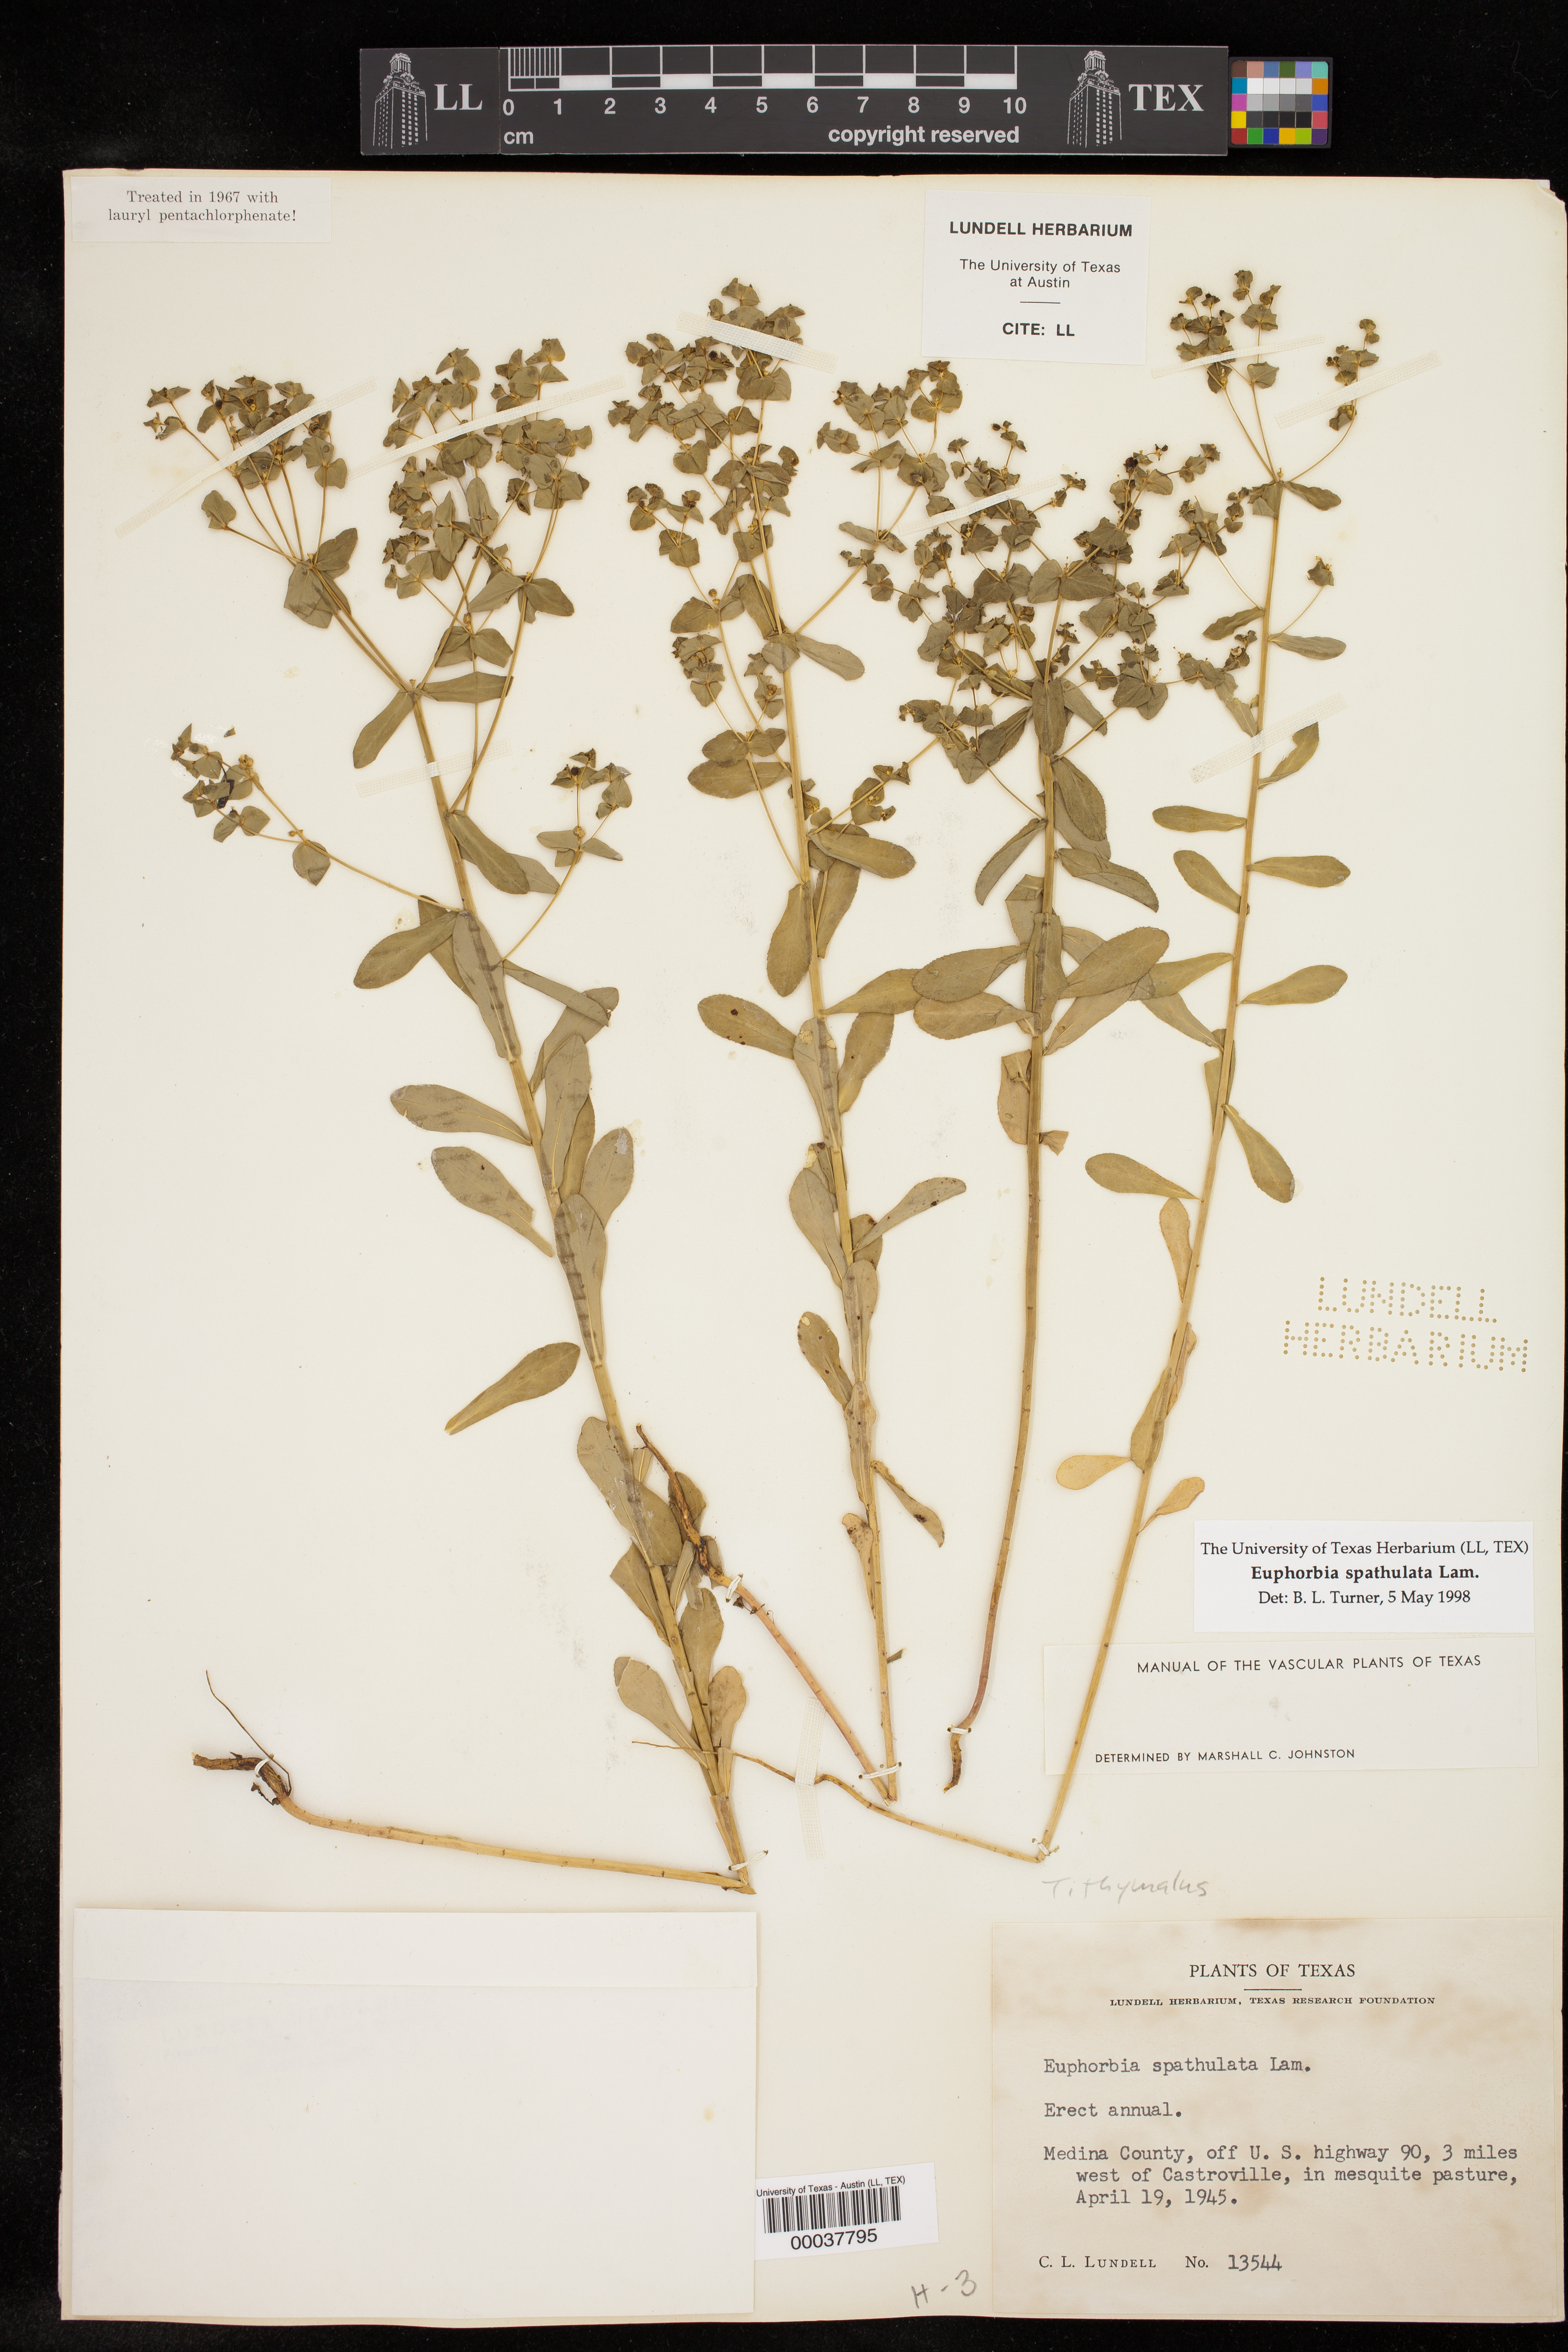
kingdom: Plantae
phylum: Tracheophyta
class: Magnoliopsida
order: Malpighiales
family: Euphorbiaceae
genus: Euphorbia
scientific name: Euphorbia spathulata
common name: Blunt spurge
